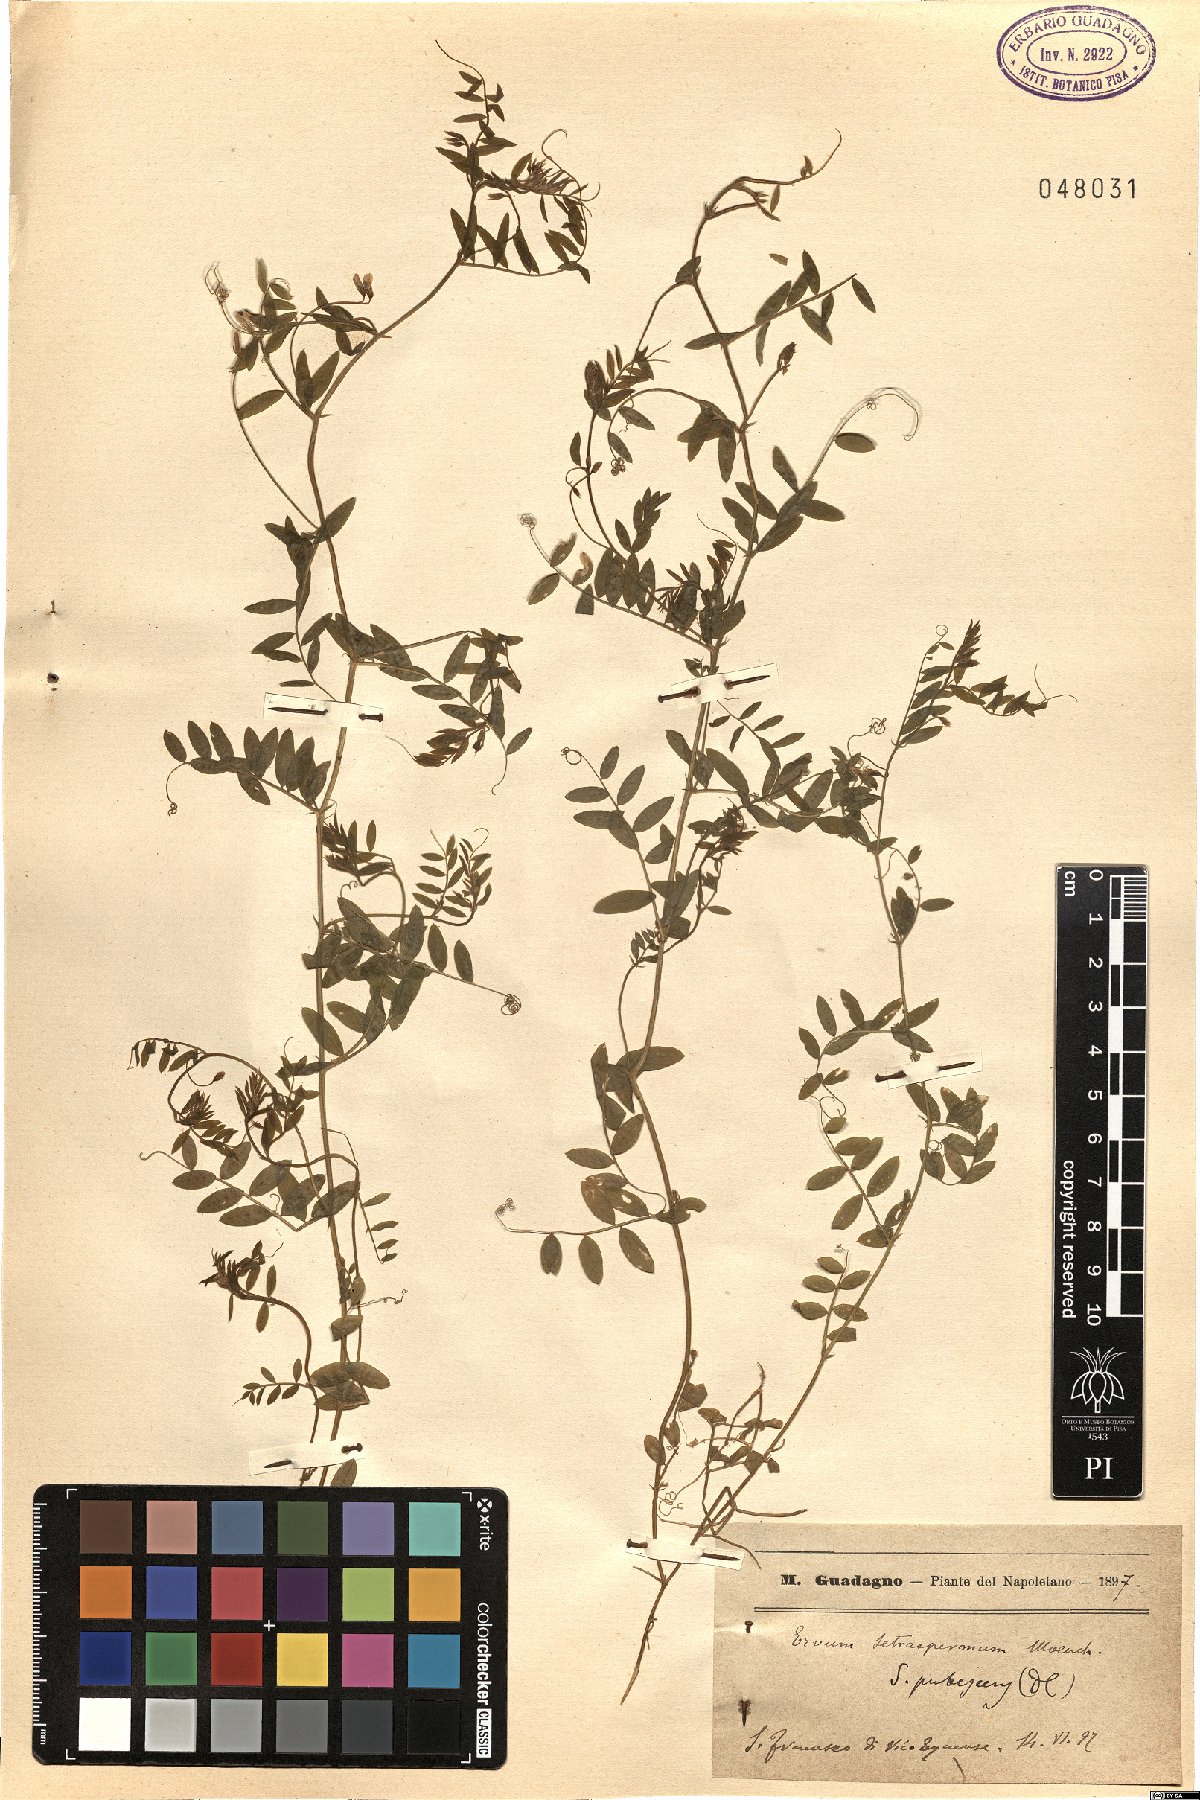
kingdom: Plantae
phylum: Tracheophyta
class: Magnoliopsida
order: Fabales
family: Fabaceae
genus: Vicia
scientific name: Vicia tetrasperma
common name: Smooth tare
